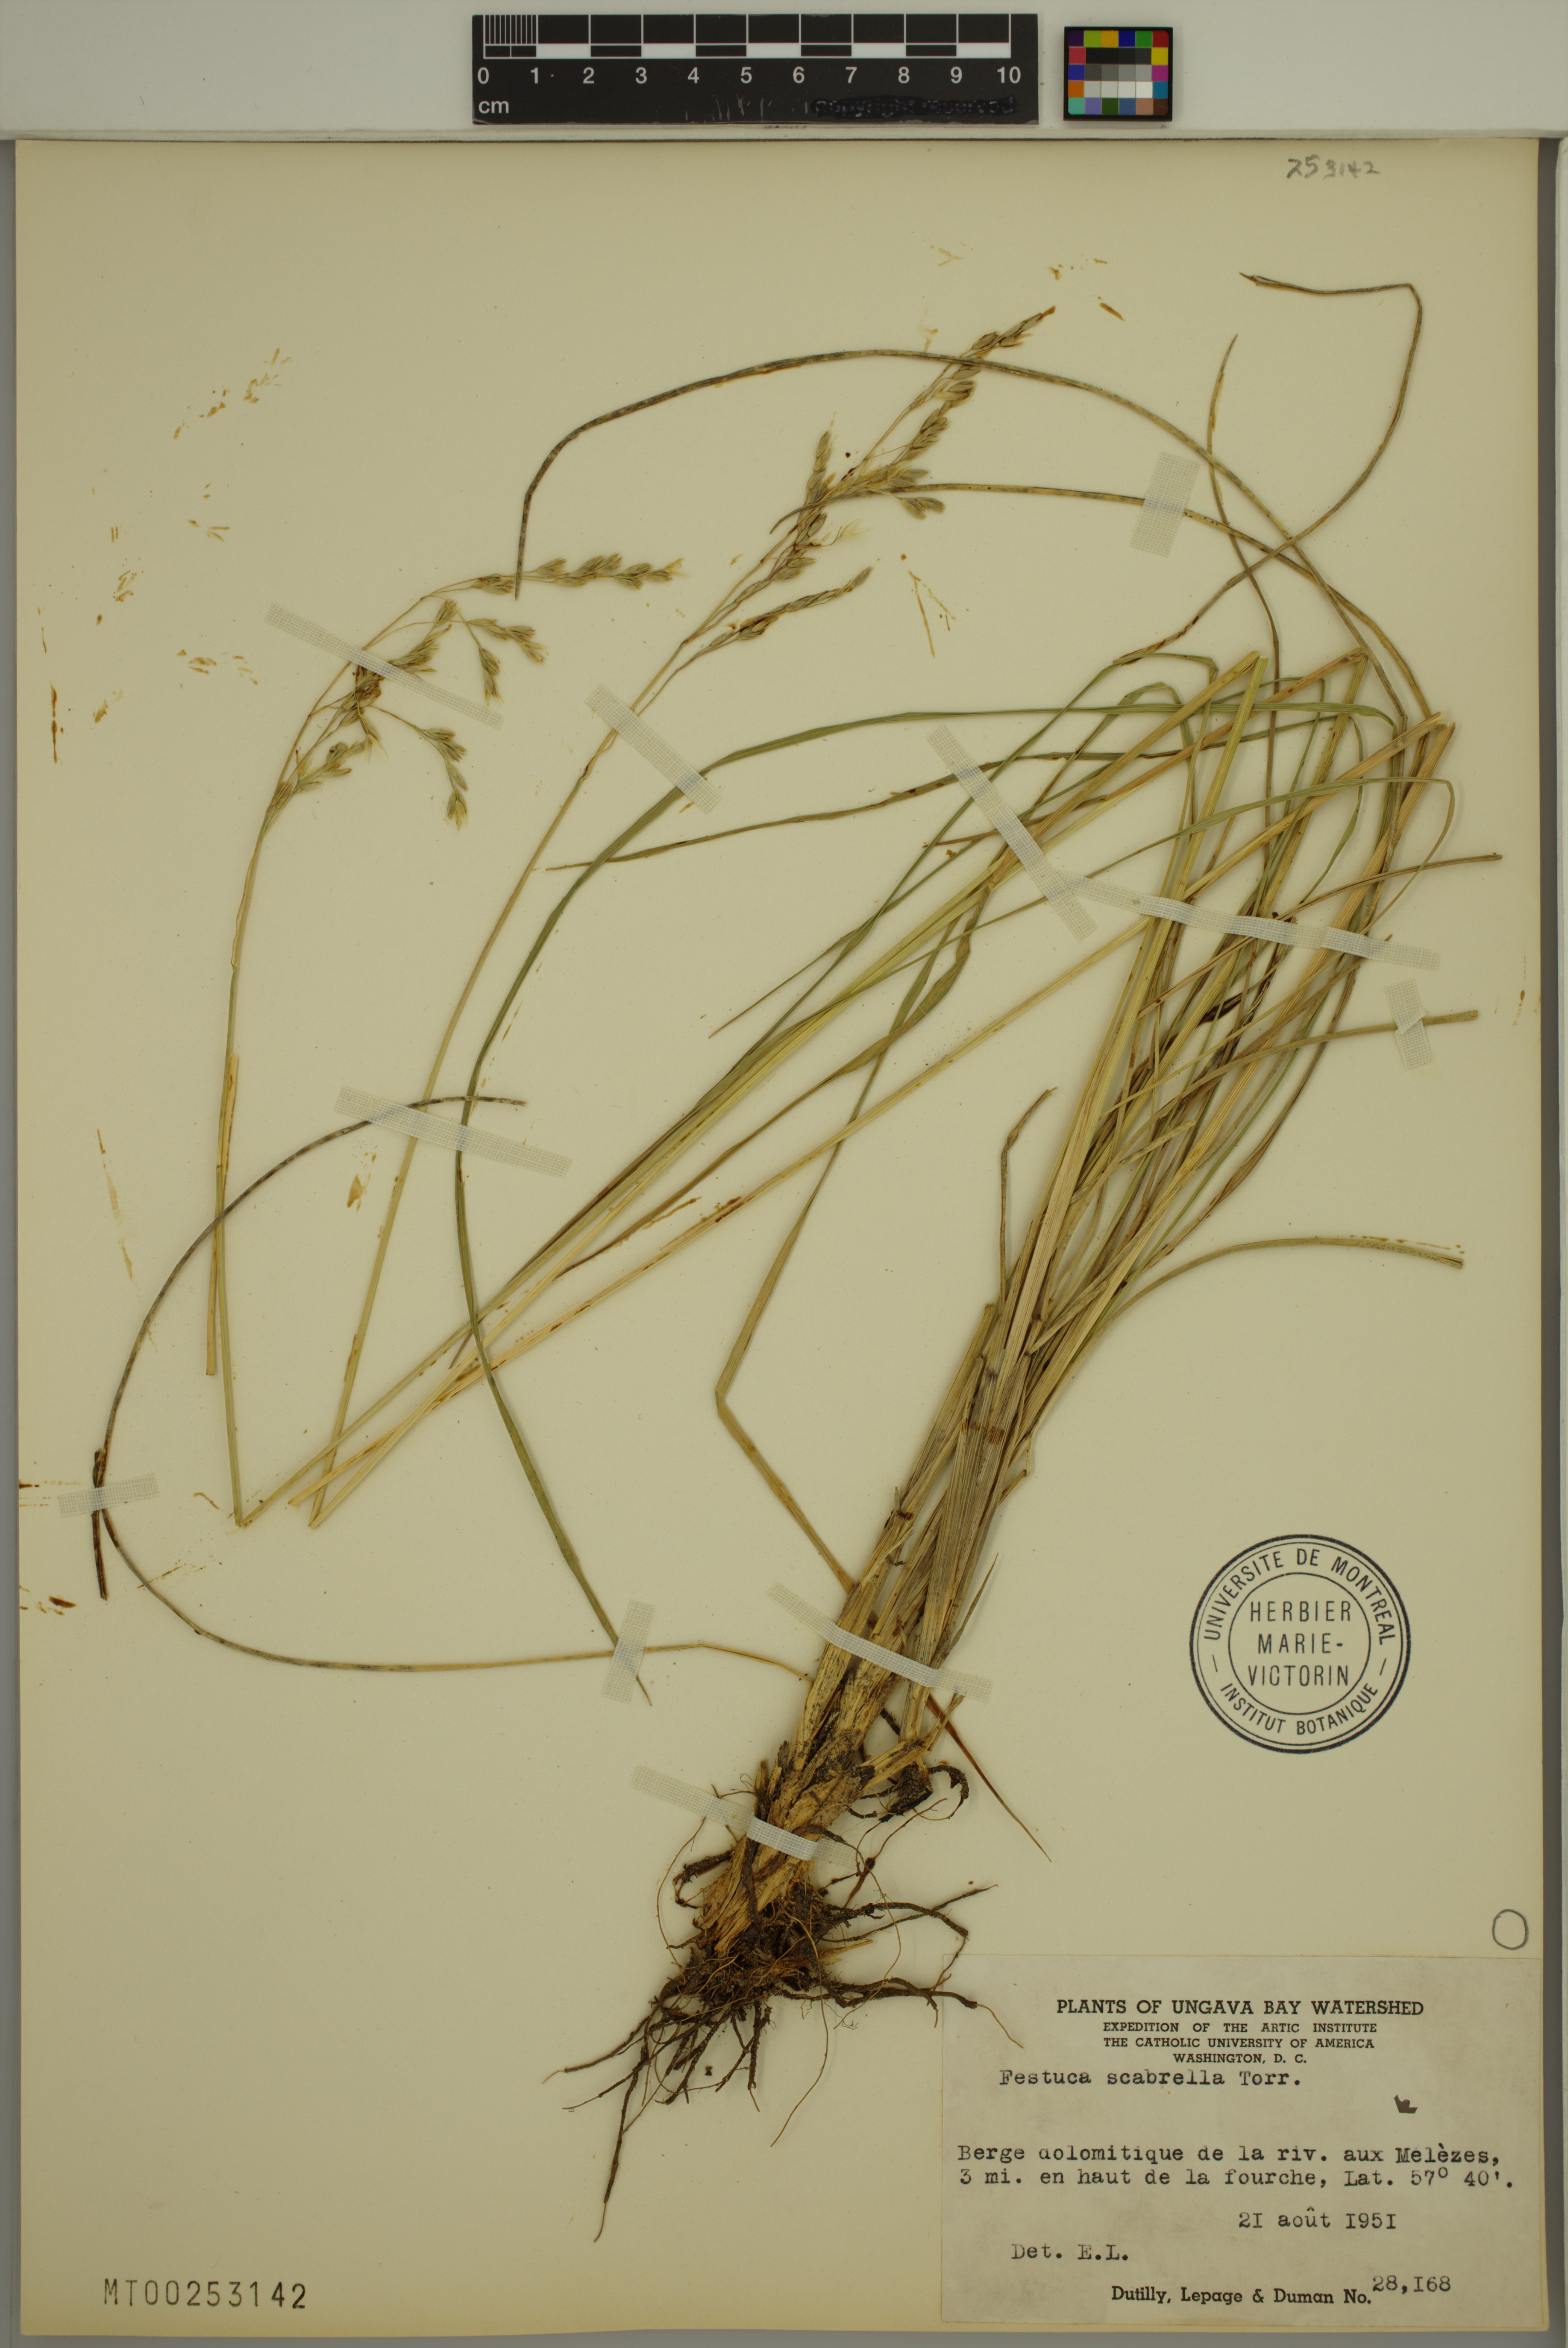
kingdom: Plantae
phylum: Tracheophyta
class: Liliopsida
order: Poales
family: Poaceae
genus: Festuca
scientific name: Festuca
